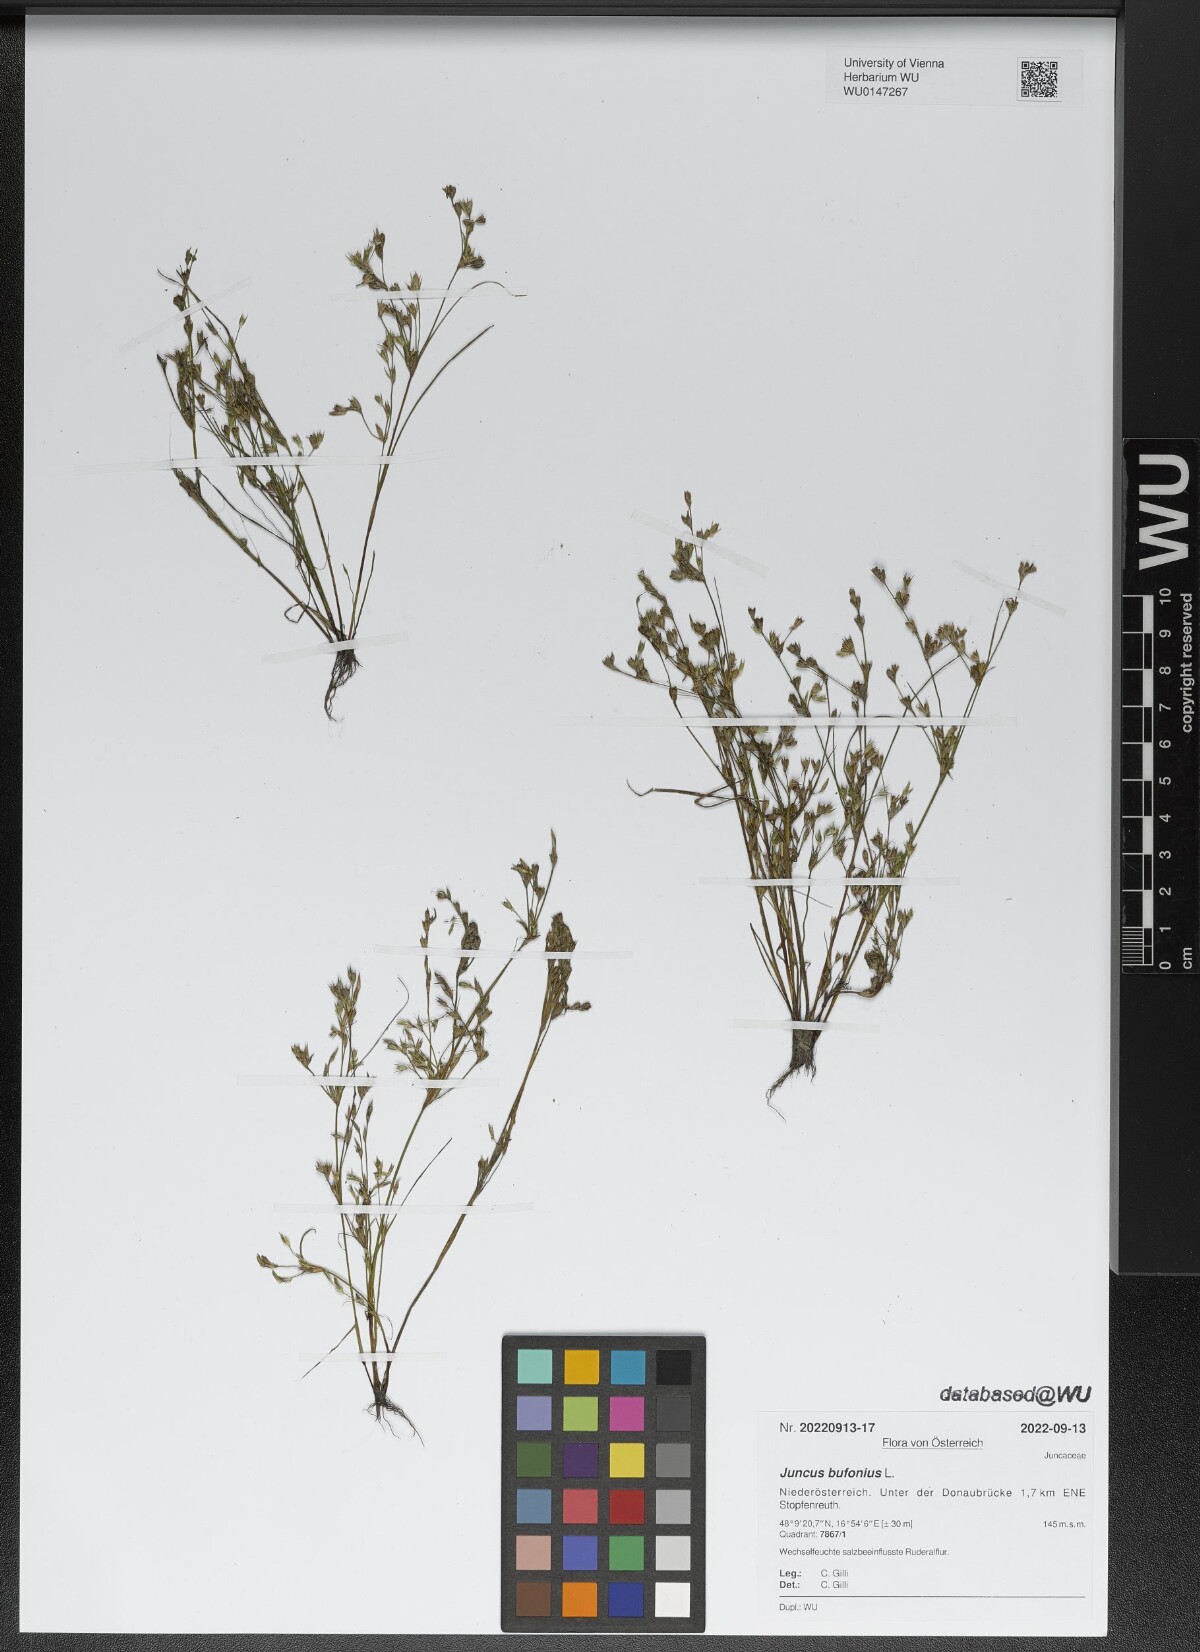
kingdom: Plantae
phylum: Tracheophyta
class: Liliopsida
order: Poales
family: Juncaceae
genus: Juncus
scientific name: Juncus bufonius
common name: Toad rush
